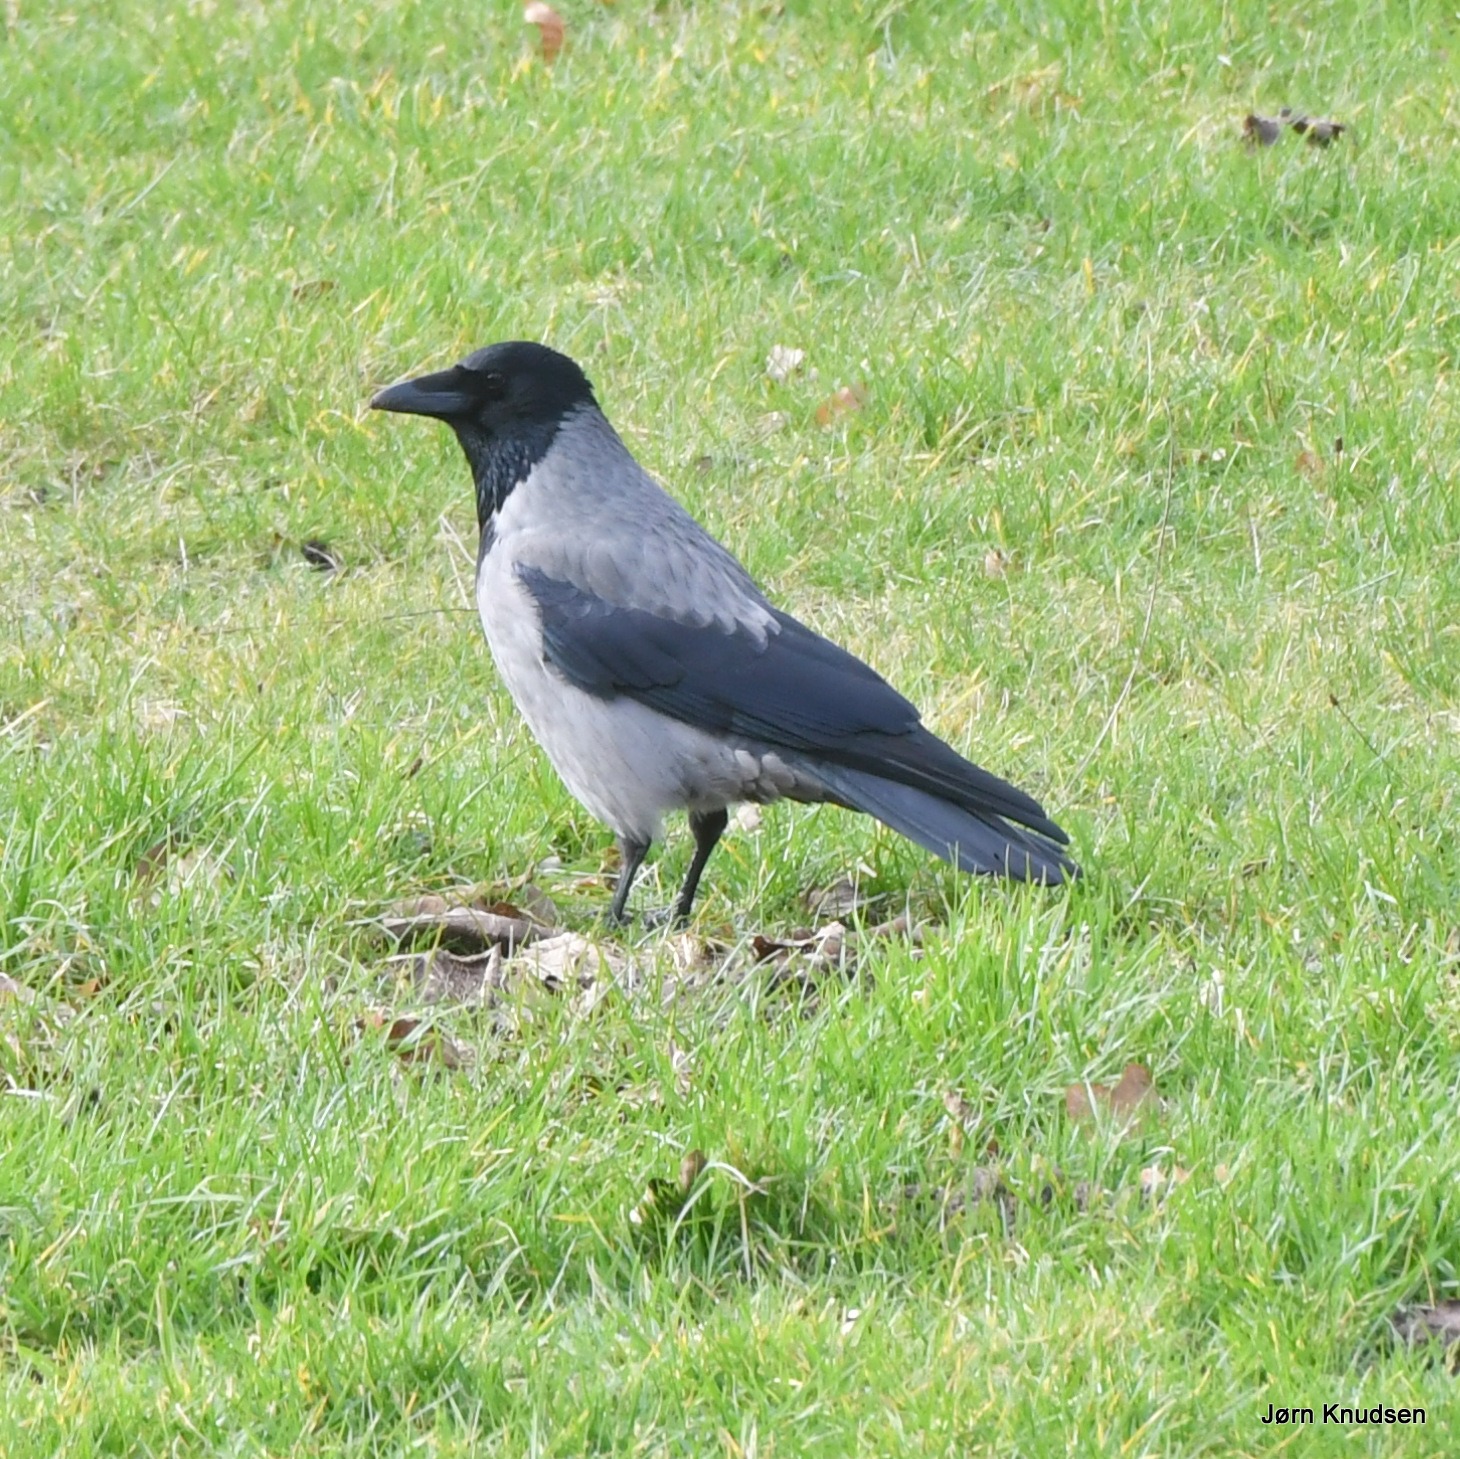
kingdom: Animalia
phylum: Chordata
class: Aves
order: Passeriformes
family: Corvidae
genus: Corvus
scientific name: Corvus cornix
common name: Gråkrage
